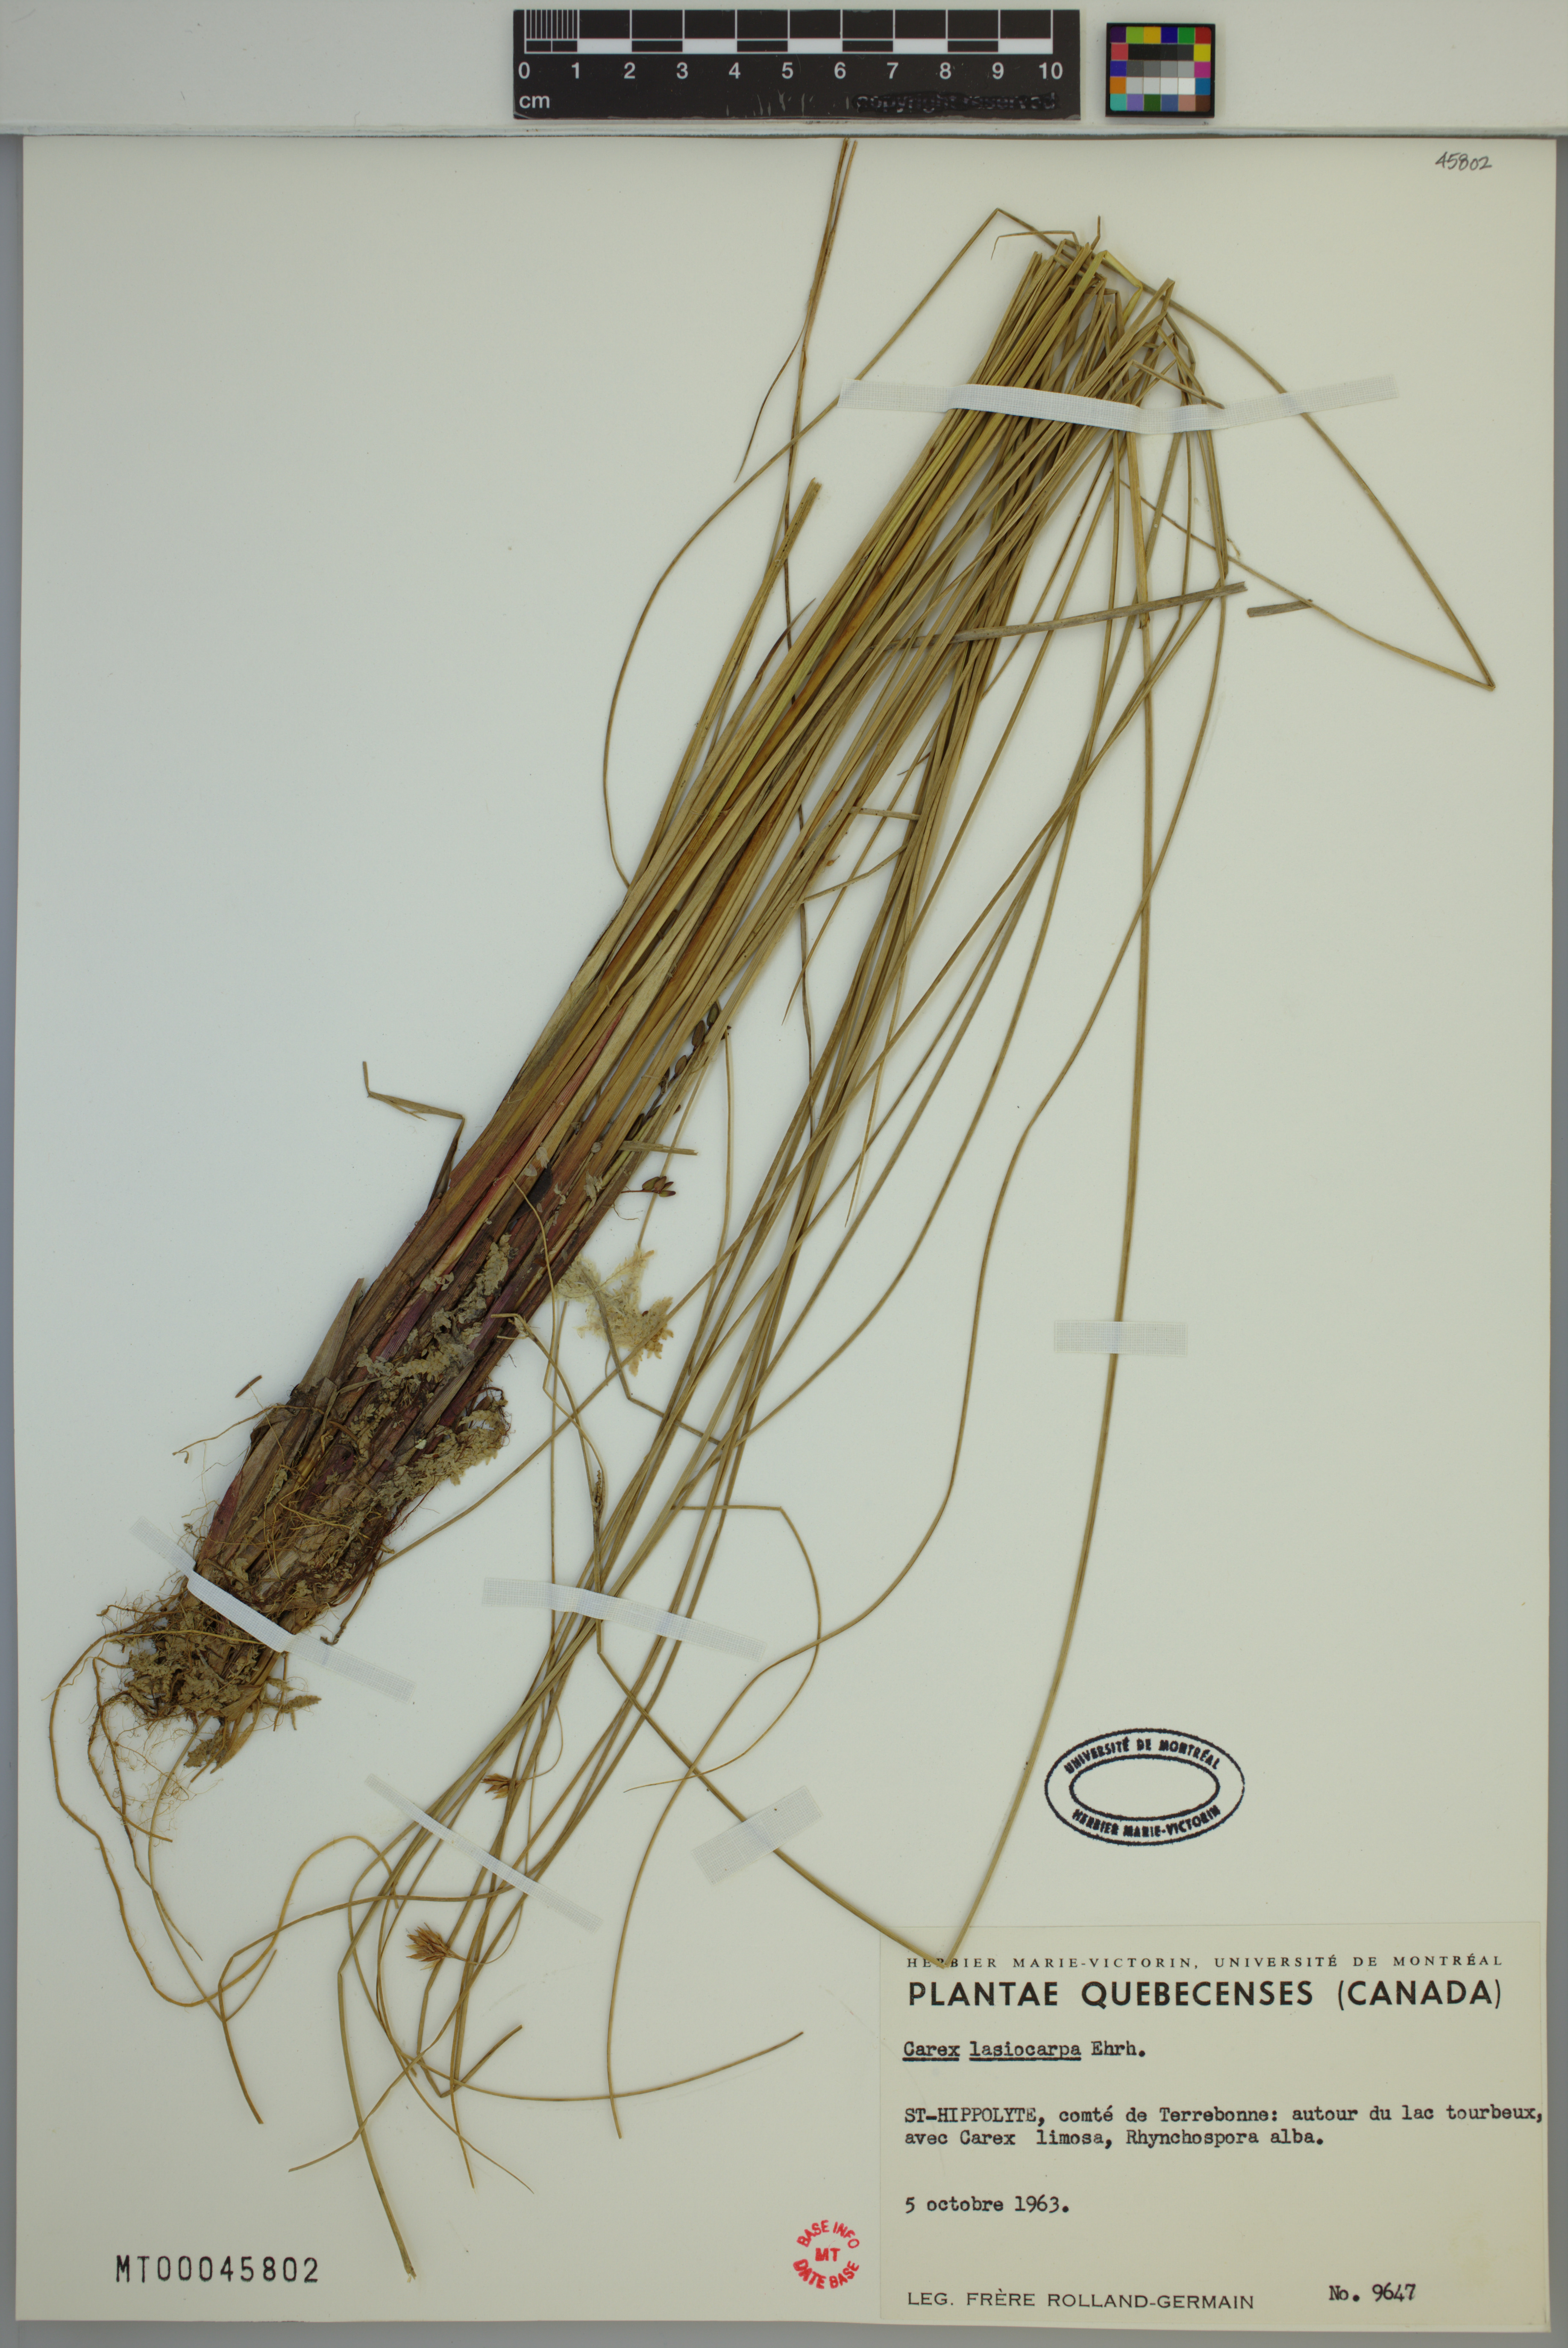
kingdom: Plantae
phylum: Tracheophyta
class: Liliopsida
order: Poales
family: Cyperaceae
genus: Carex
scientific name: Carex lasiocarpa
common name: Slender sedge
